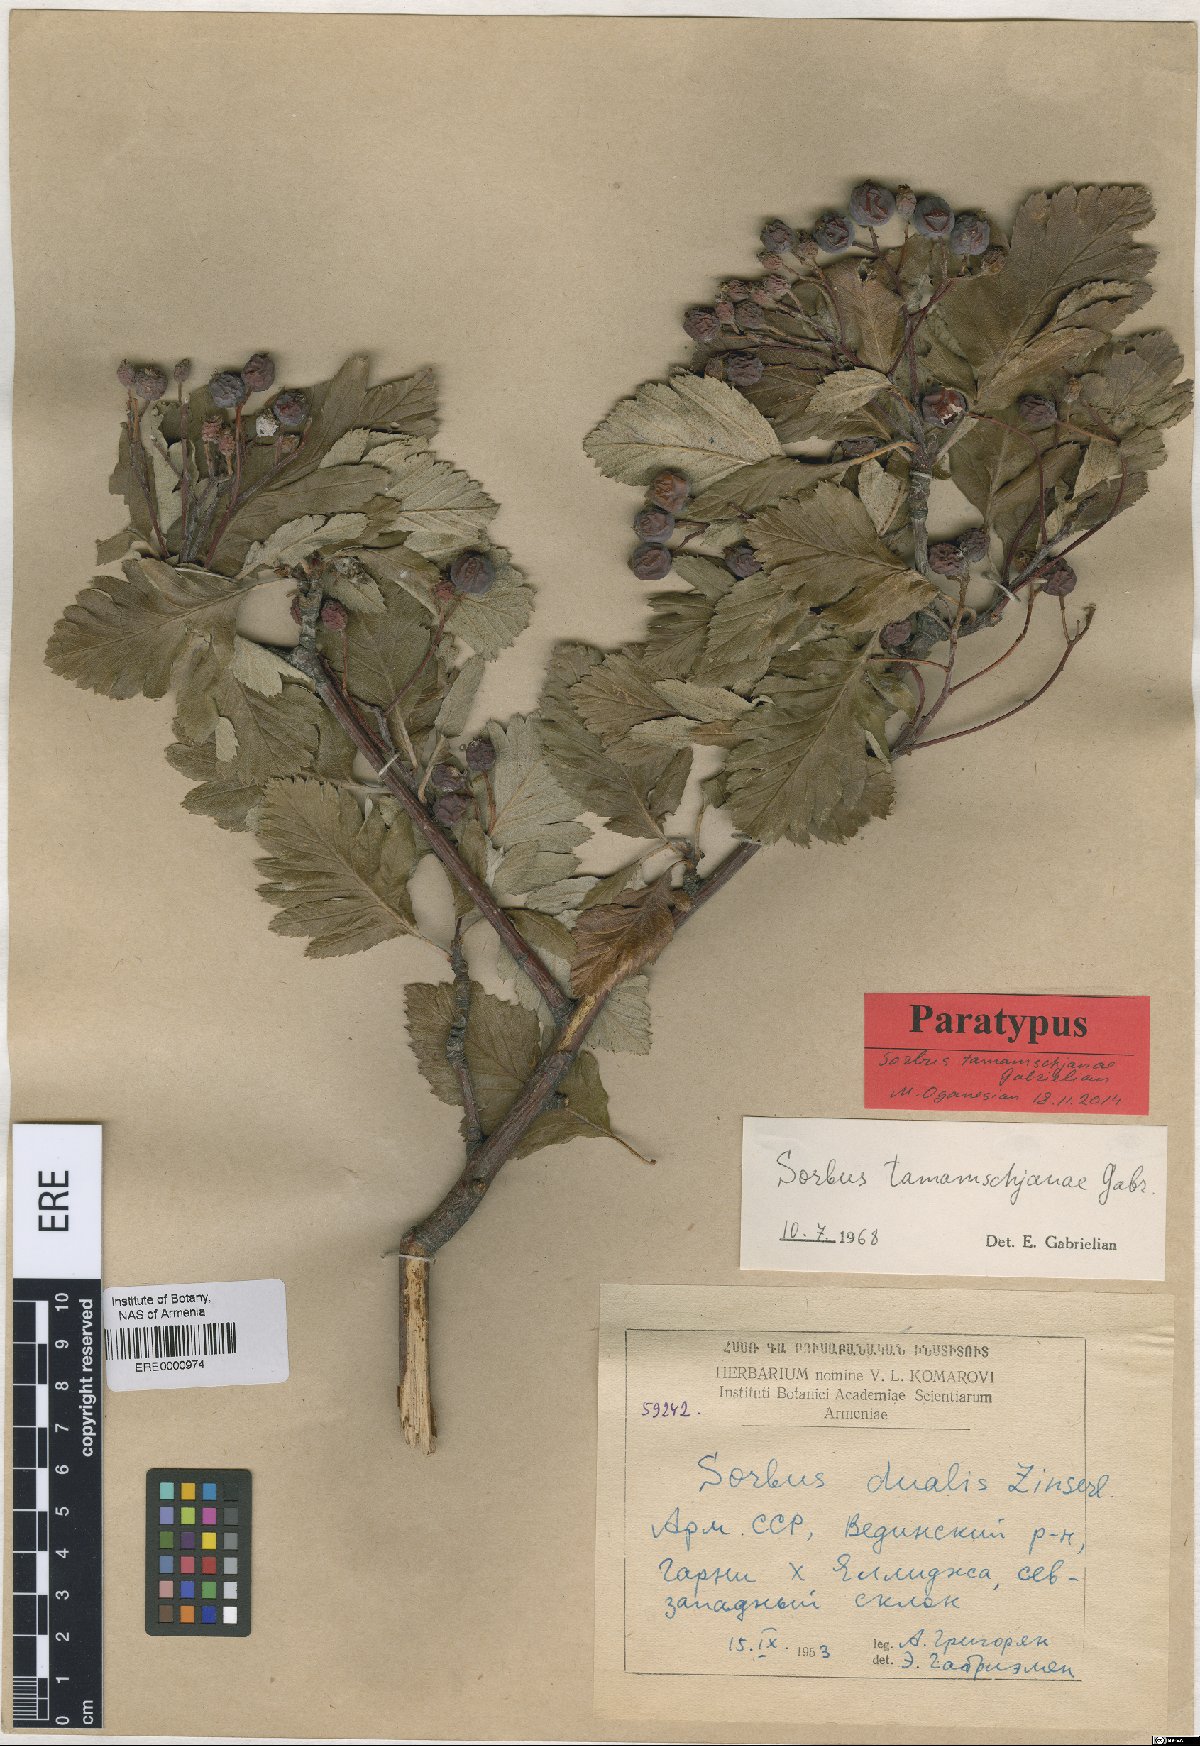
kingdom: Plantae
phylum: Tracheophyta
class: Magnoliopsida
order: Rosales
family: Rosaceae
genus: Hedlundia
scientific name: Hedlundia tamamschjanae
